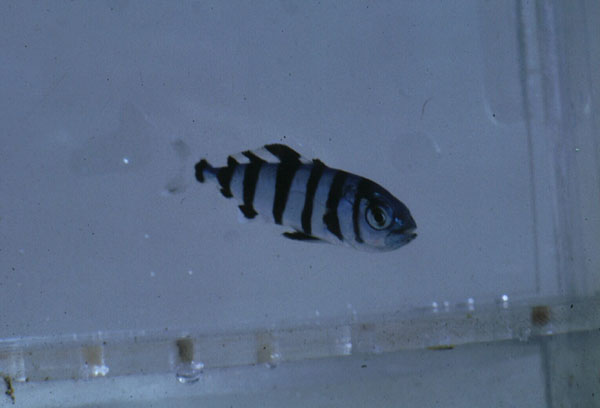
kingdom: Animalia
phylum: Chordata
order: Perciformes
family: Carangidae
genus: Naucrates
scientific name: Naucrates ductor
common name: Pilotfish
